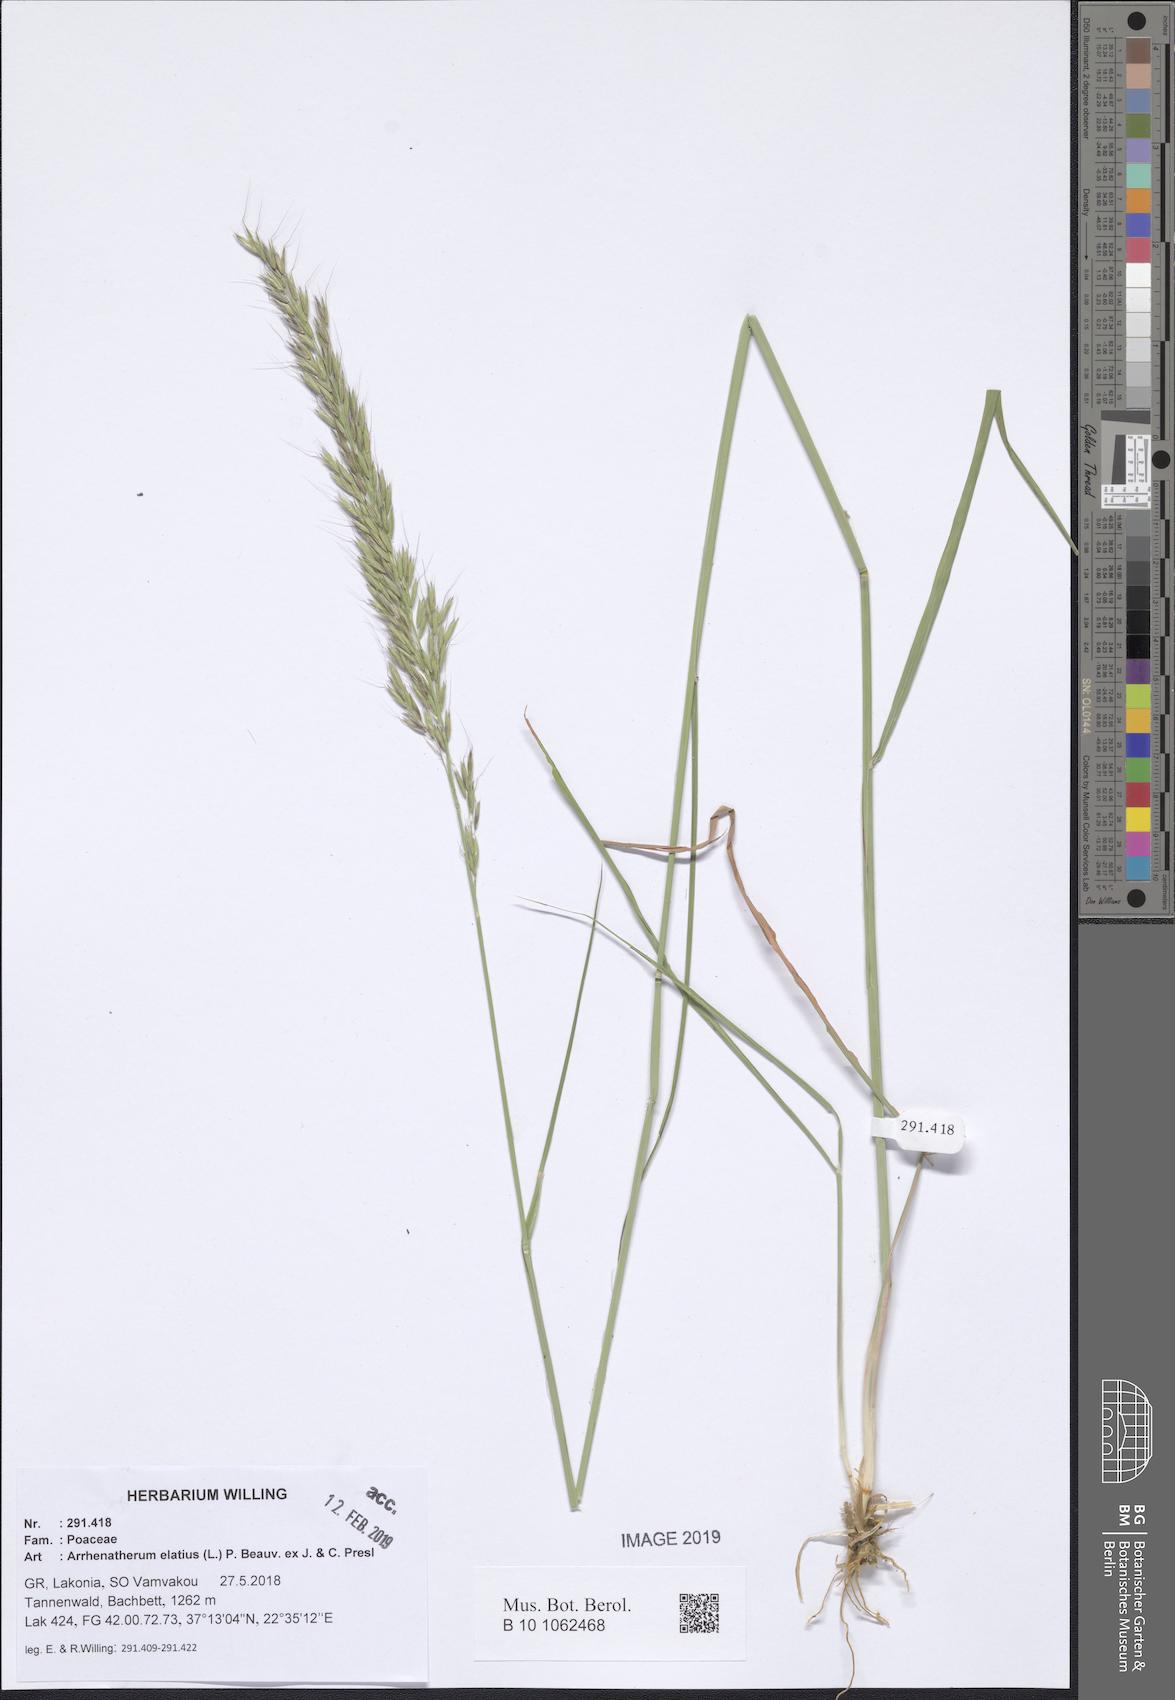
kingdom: Plantae
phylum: Tracheophyta
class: Liliopsida
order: Poales
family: Poaceae
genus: Arrhenatherum
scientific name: Arrhenatherum elatius
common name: Tall oatgrass
